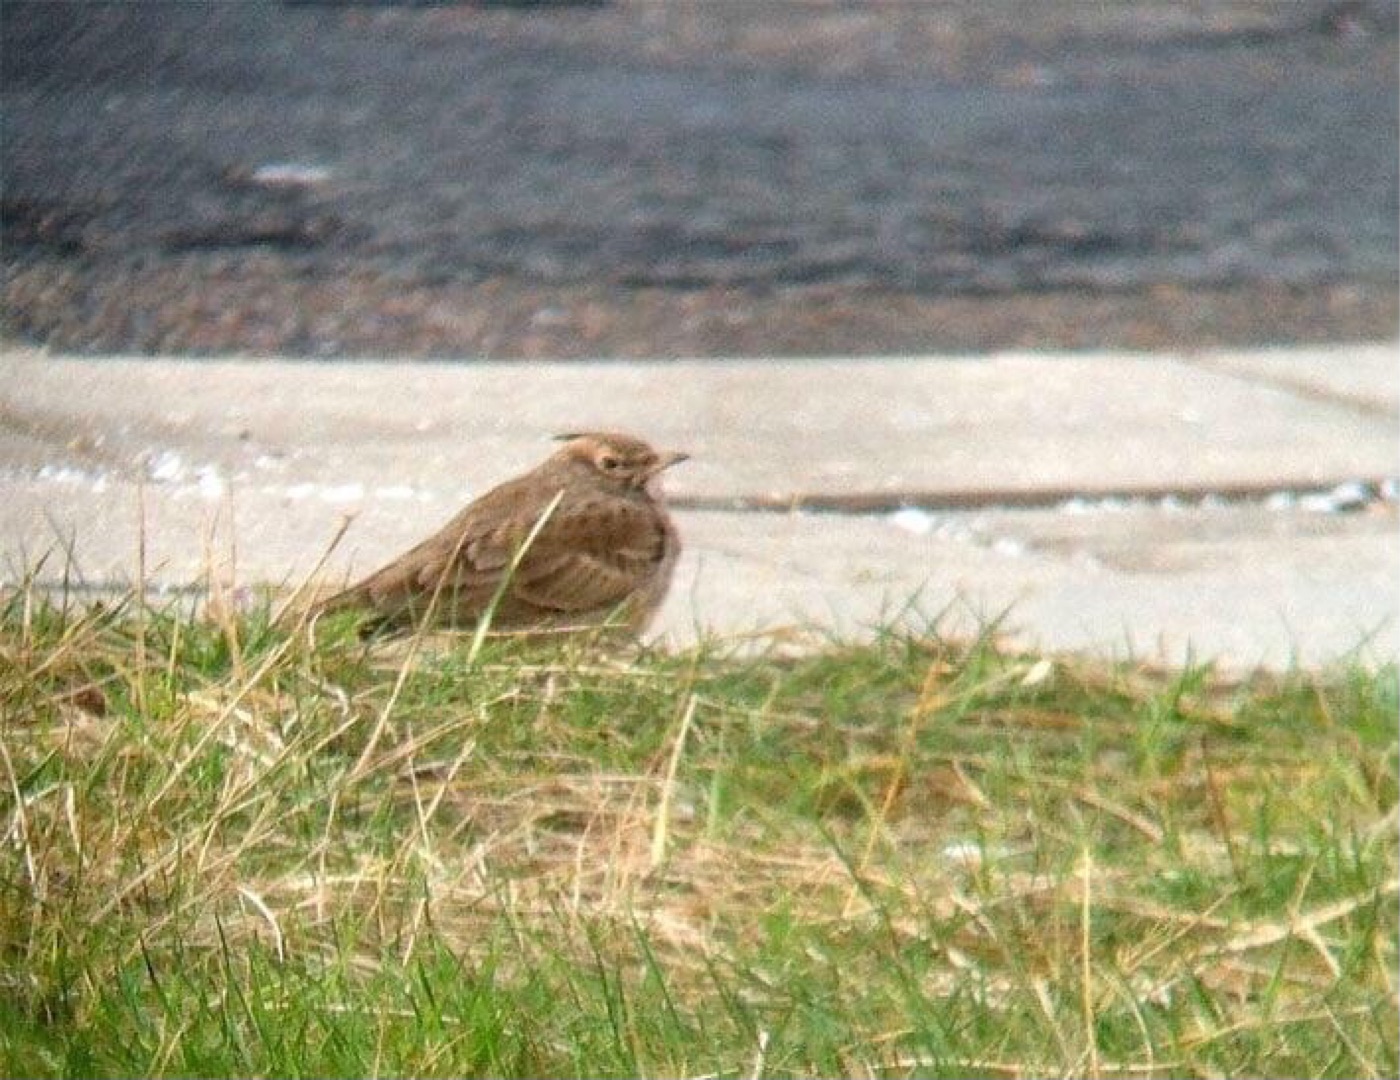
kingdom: Animalia
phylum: Chordata
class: Aves
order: Passeriformes
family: Alaudidae
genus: Galerida
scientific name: Galerida cristata
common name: Toplærke
